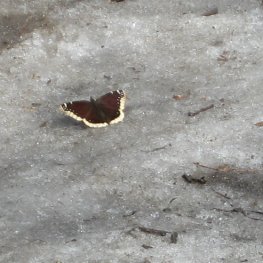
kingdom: Animalia
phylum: Arthropoda
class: Insecta
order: Lepidoptera
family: Nymphalidae
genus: Nymphalis
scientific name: Nymphalis antiopa
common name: Mourning Cloak
